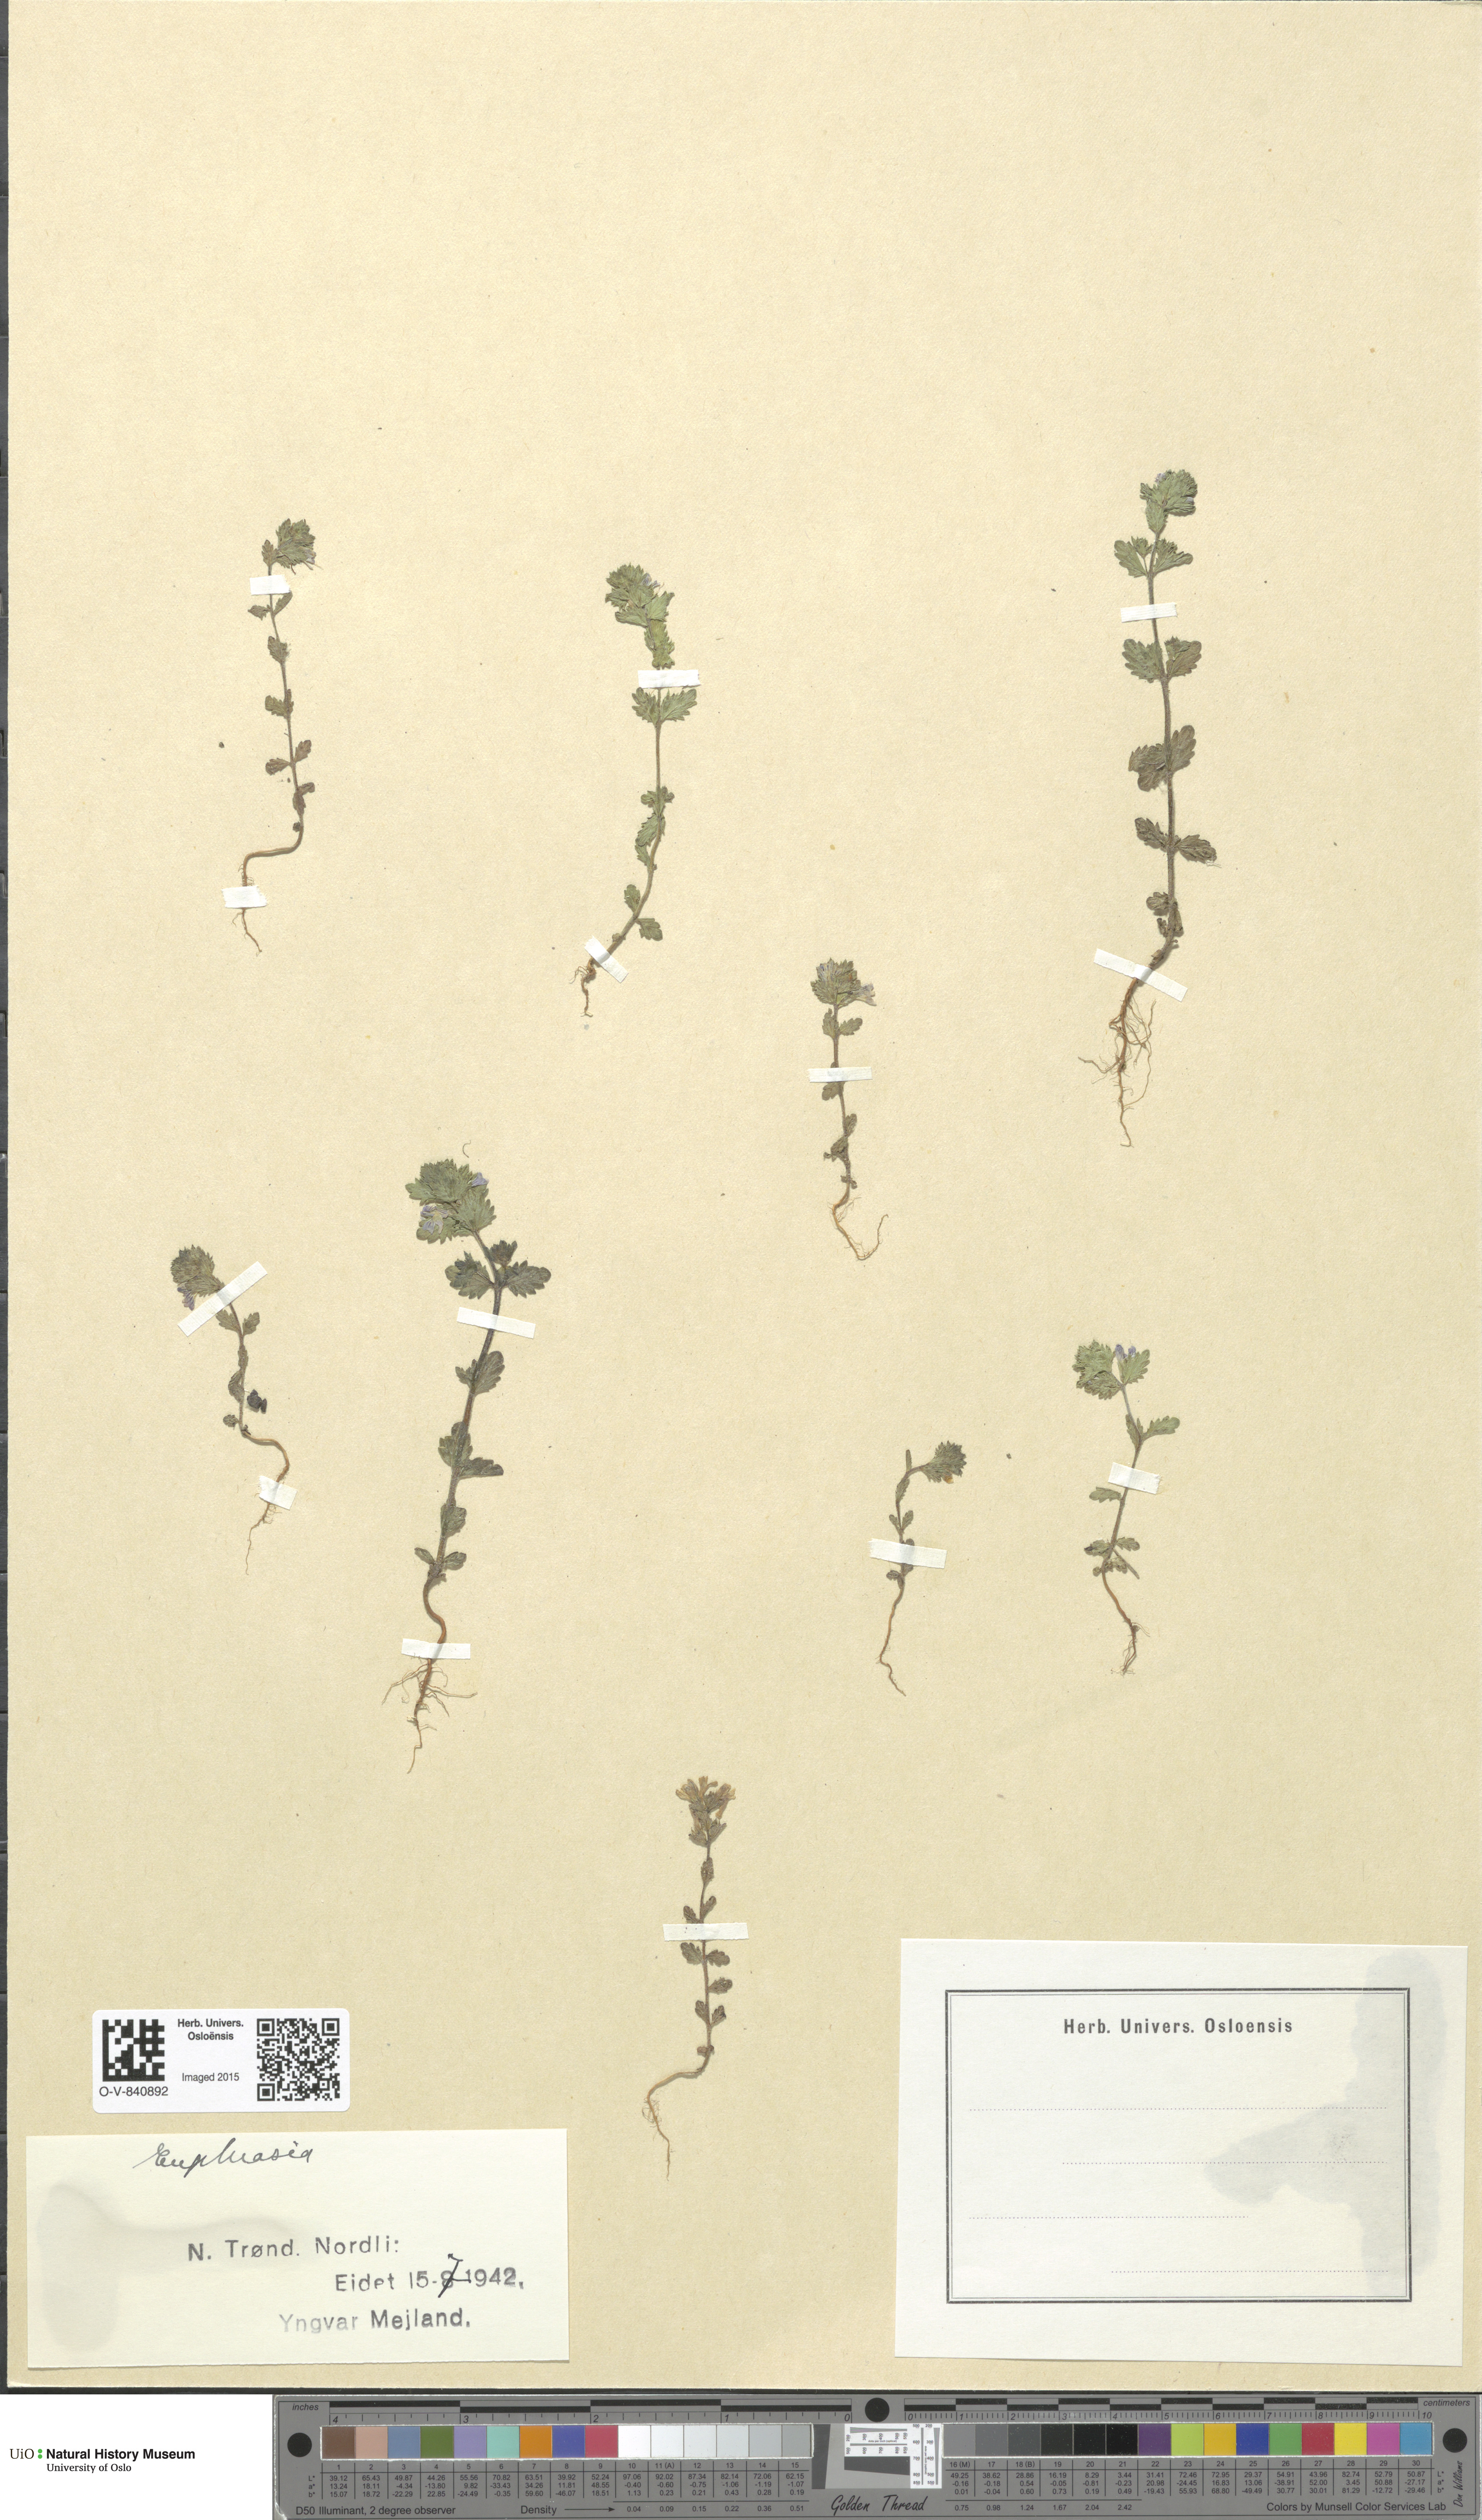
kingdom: Plantae
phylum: Tracheophyta
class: Magnoliopsida
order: Lamiales
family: Orobanchaceae
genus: Euphrasia
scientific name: Euphrasia
